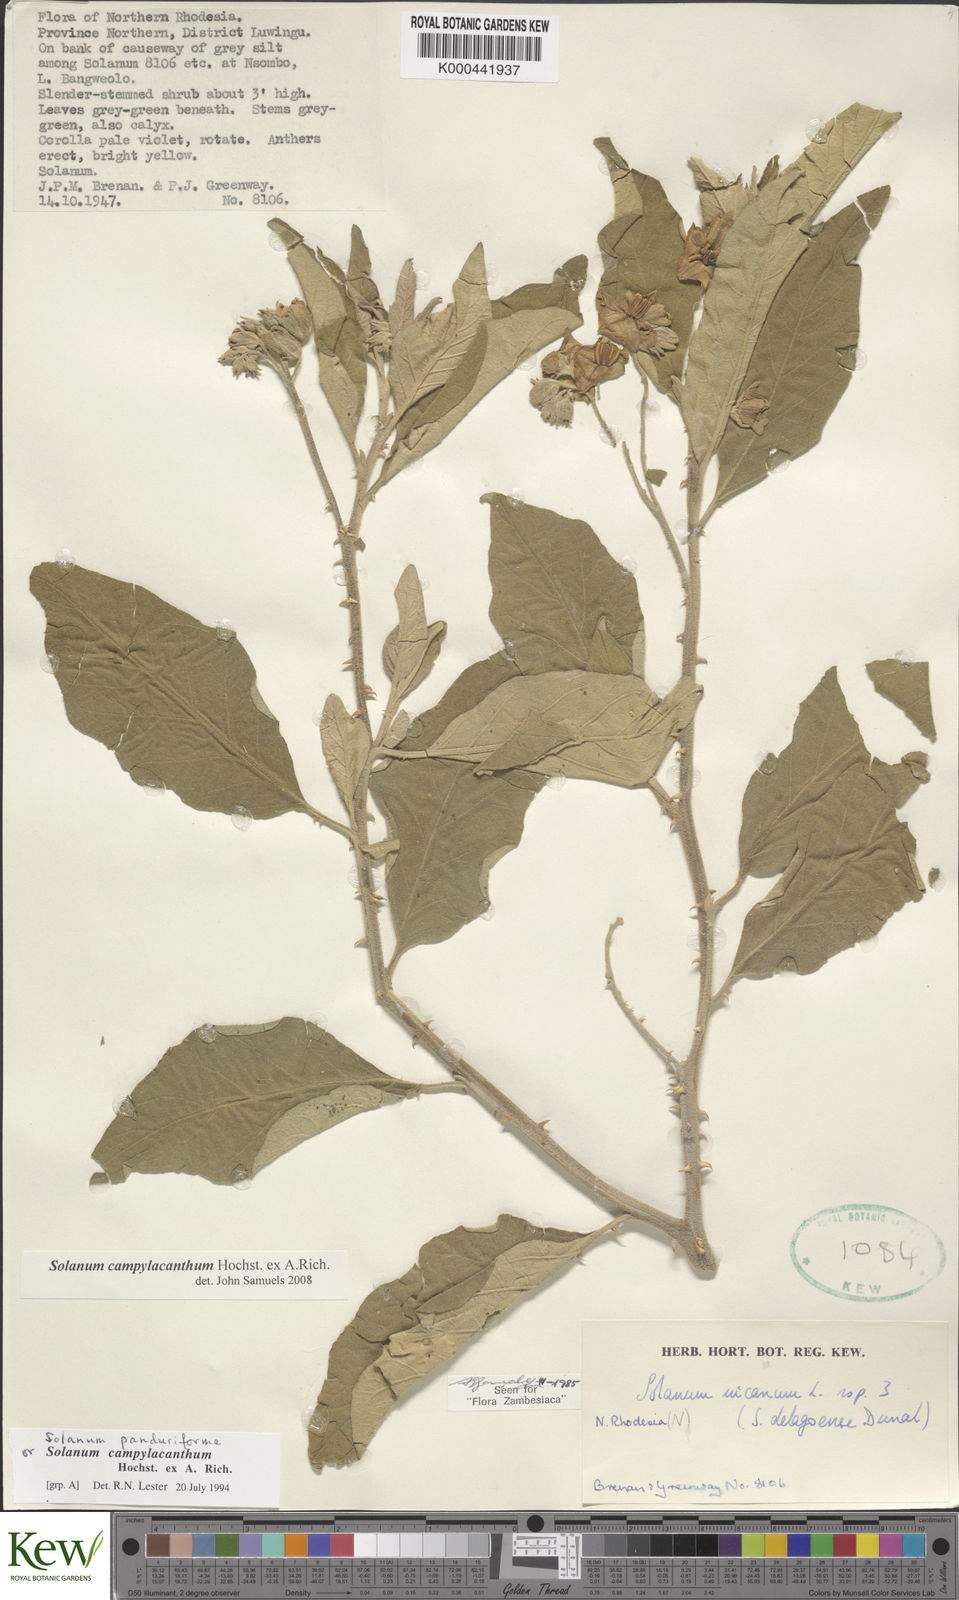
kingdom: Plantae
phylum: Tracheophyta
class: Magnoliopsida
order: Solanales
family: Solanaceae
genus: Solanum
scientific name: Solanum campylacanthum
